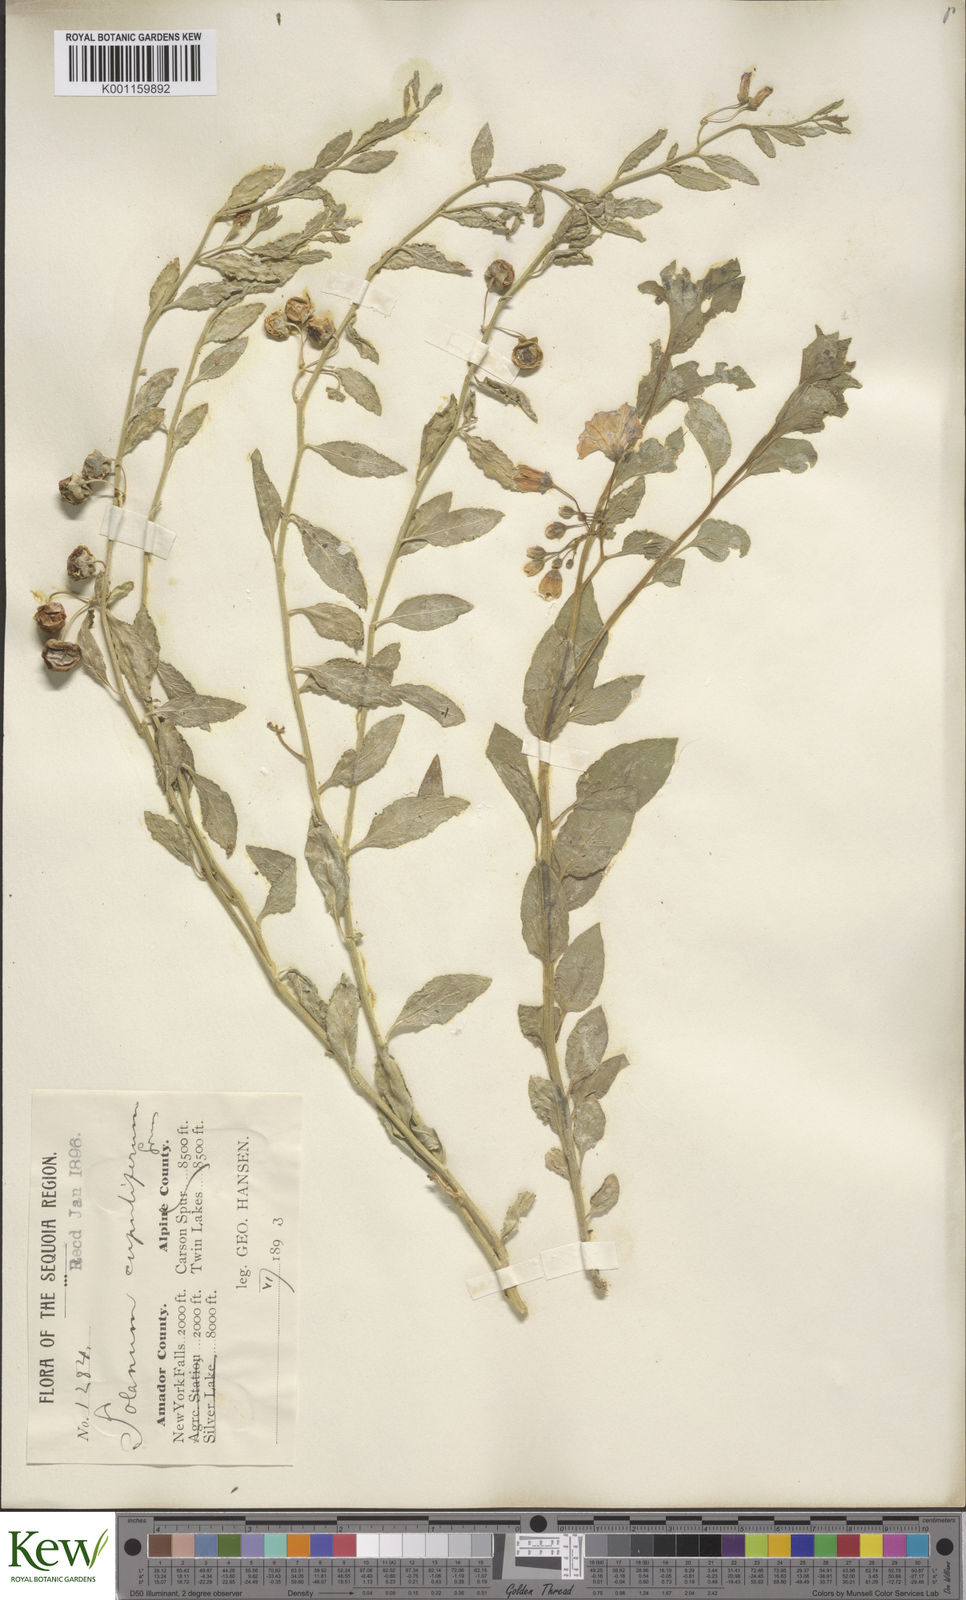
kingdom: Plantae
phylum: Tracheophyta
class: Magnoliopsida
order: Solanales
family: Solanaceae
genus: Solanum
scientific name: Solanum umbelliferum
